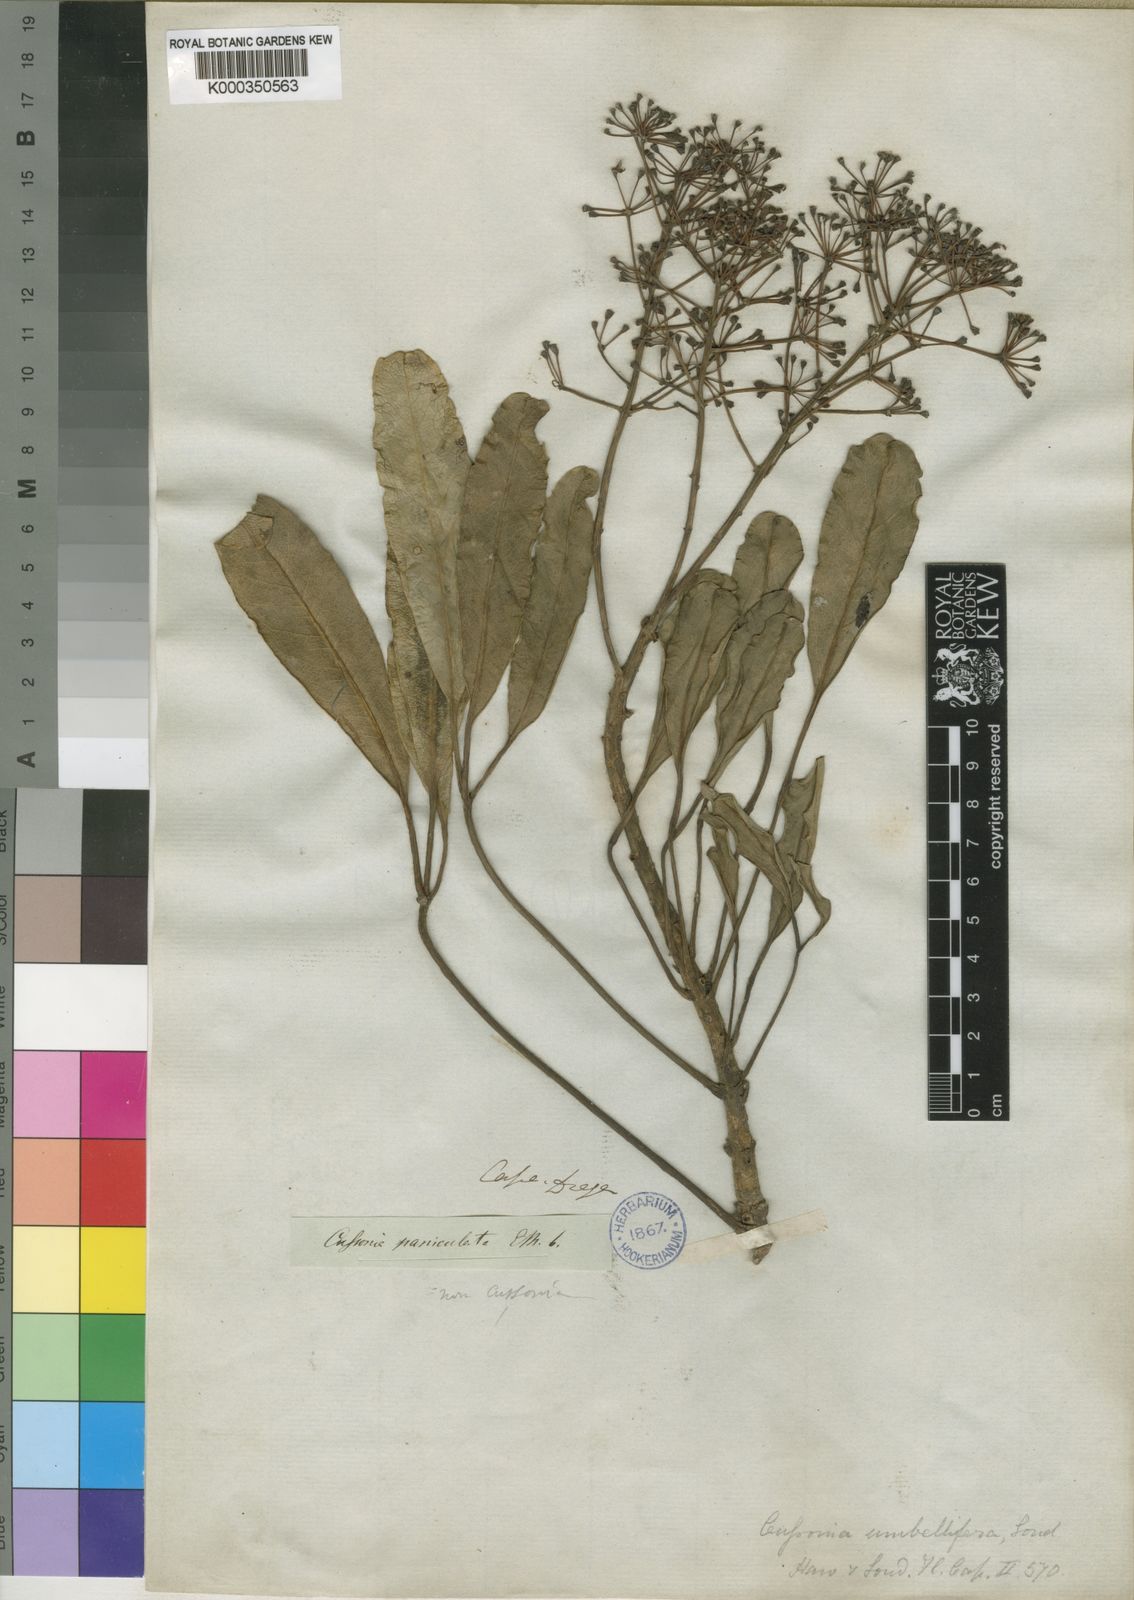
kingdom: Plantae
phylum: Tracheophyta
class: Magnoliopsida
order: Apiales
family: Araliaceae
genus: Neocussonia
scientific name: Neocussonia umbellifera
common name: False cabbage tree
